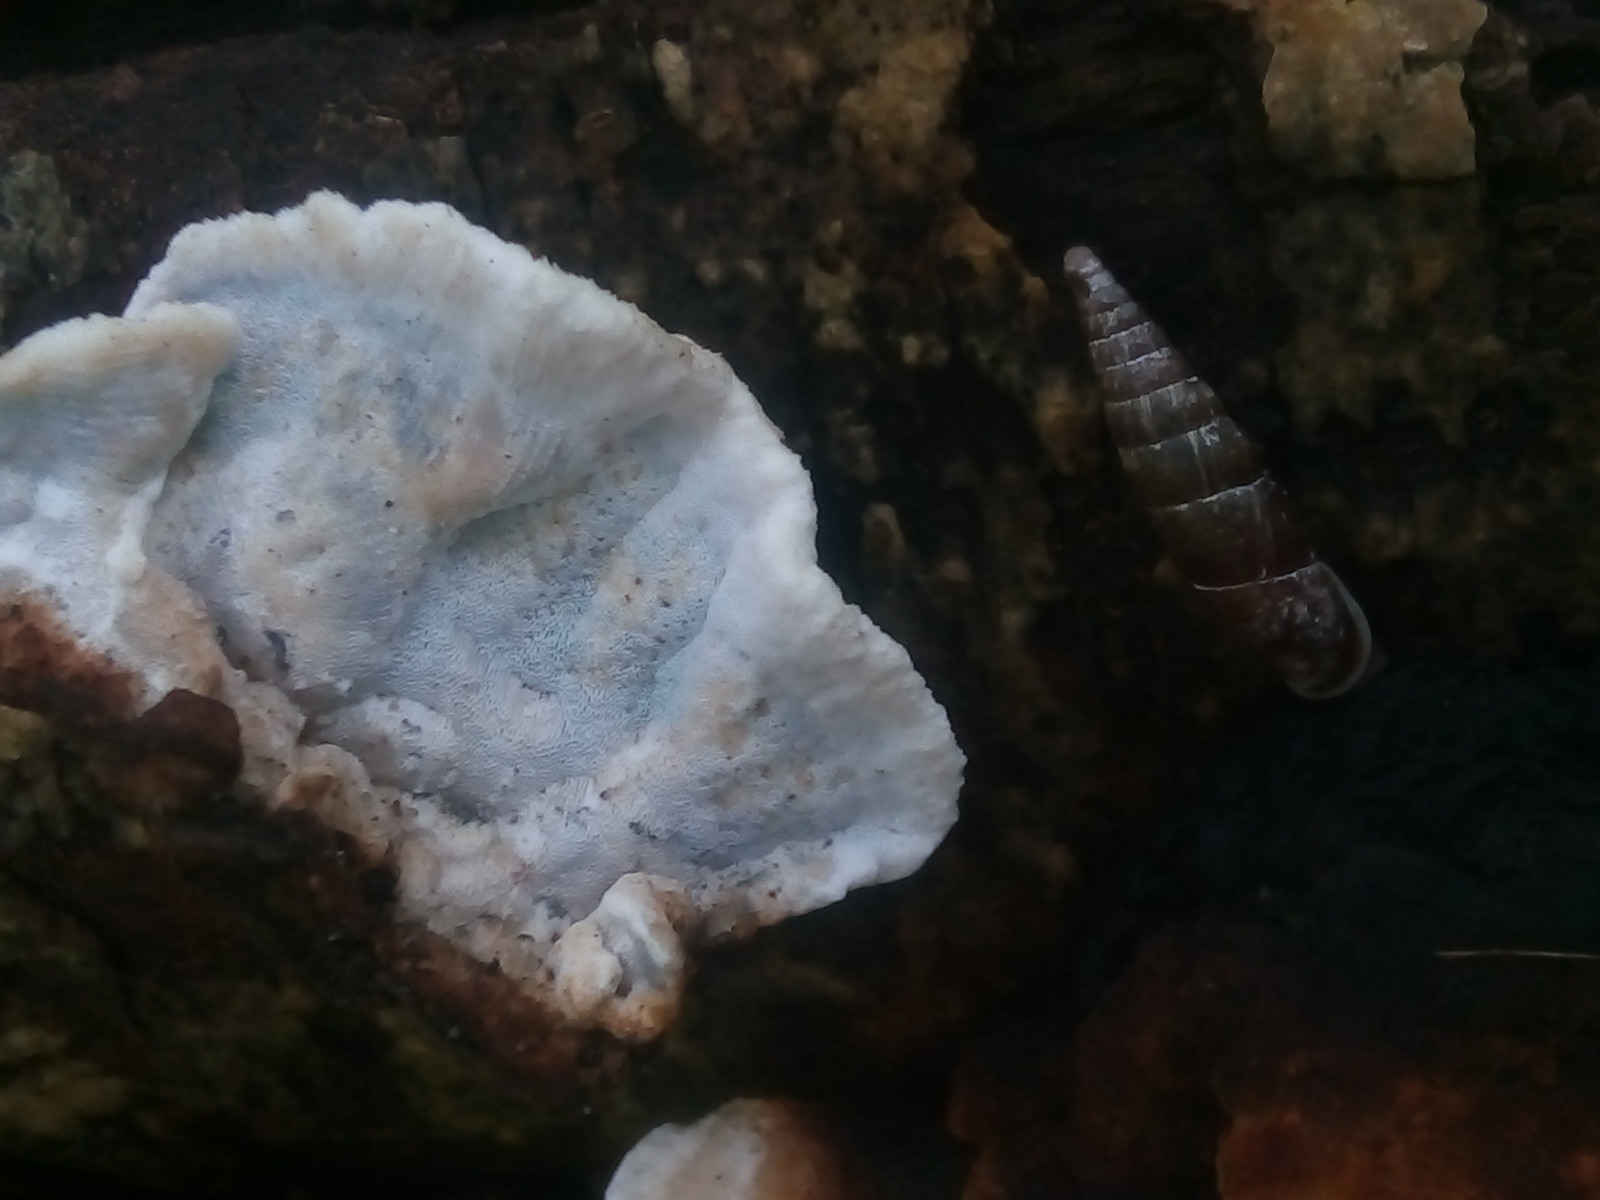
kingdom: Fungi
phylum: Basidiomycota
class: Agaricomycetes
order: Polyporales
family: Incrustoporiaceae
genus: Skeletocutis
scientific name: Skeletocutis nemoralis
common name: stor krystalporesvamp
